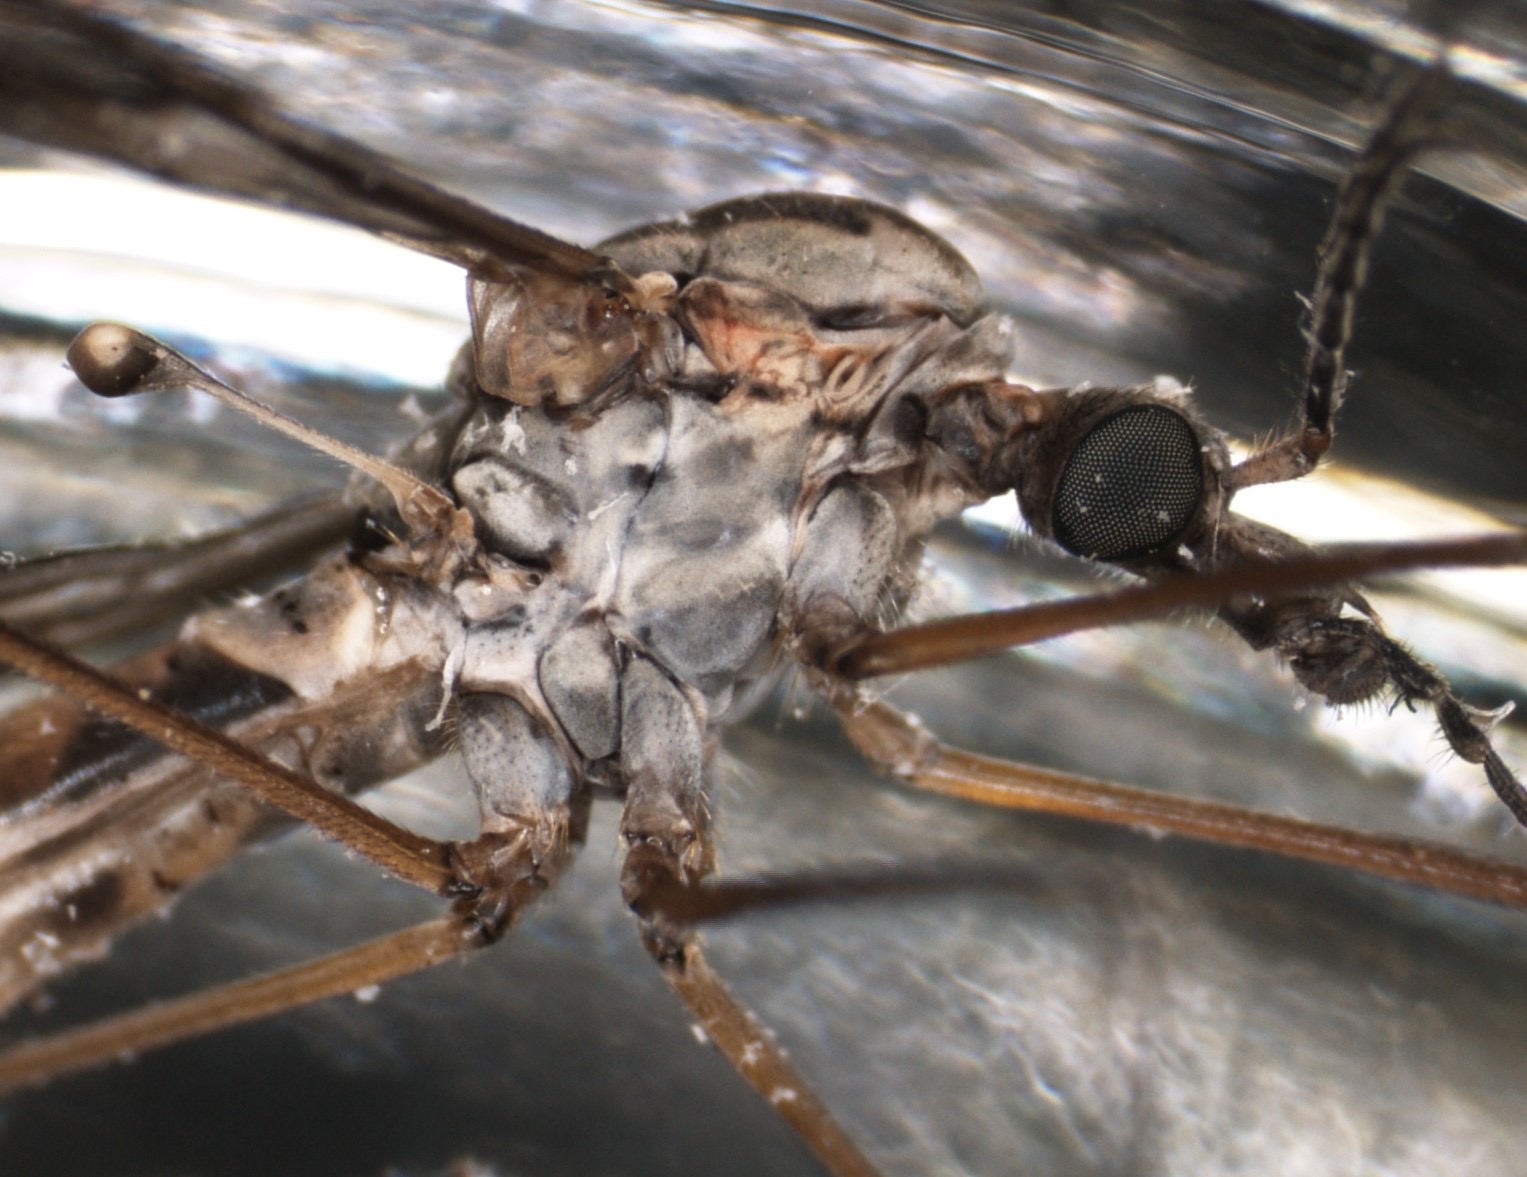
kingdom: Animalia
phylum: Arthropoda
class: Insecta
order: Diptera
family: Tipulidae
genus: Tipula
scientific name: Tipula confusa
